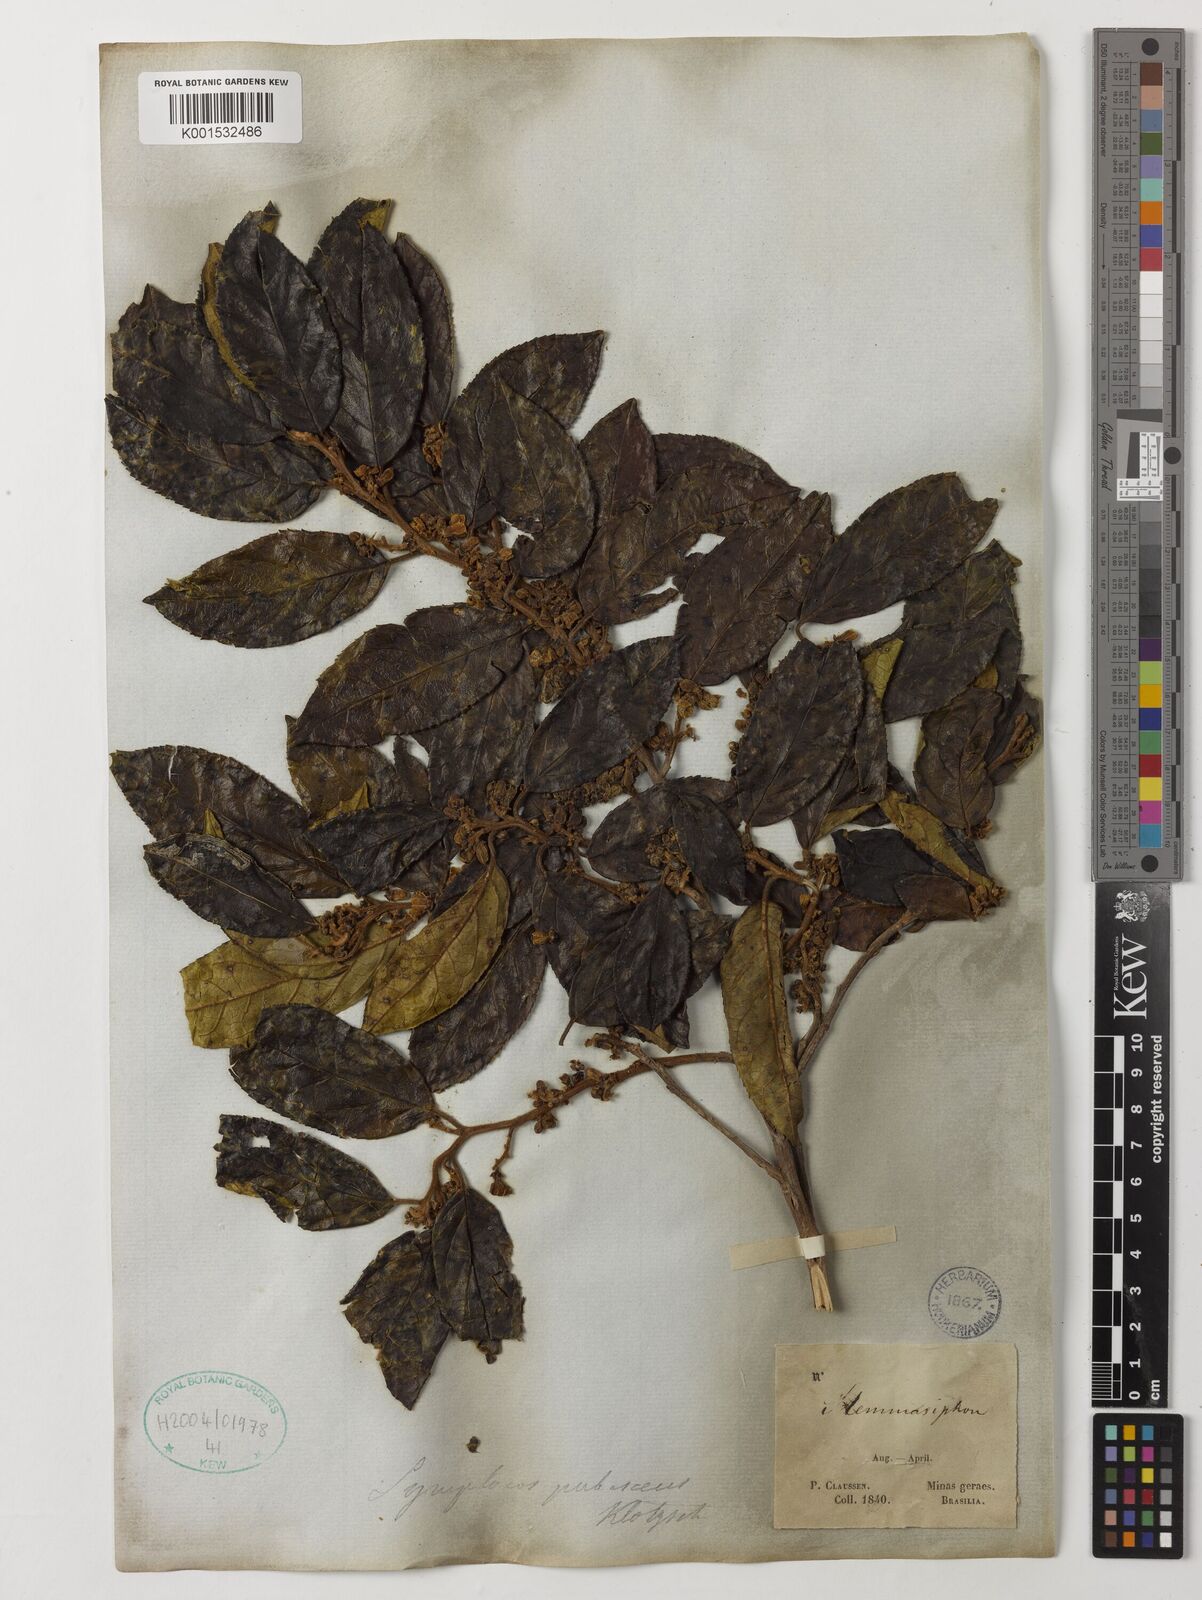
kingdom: Plantae
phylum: Tracheophyta
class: Magnoliopsida
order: Ericales
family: Symplocaceae
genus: Symplocos
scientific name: Symplocos pubescens
